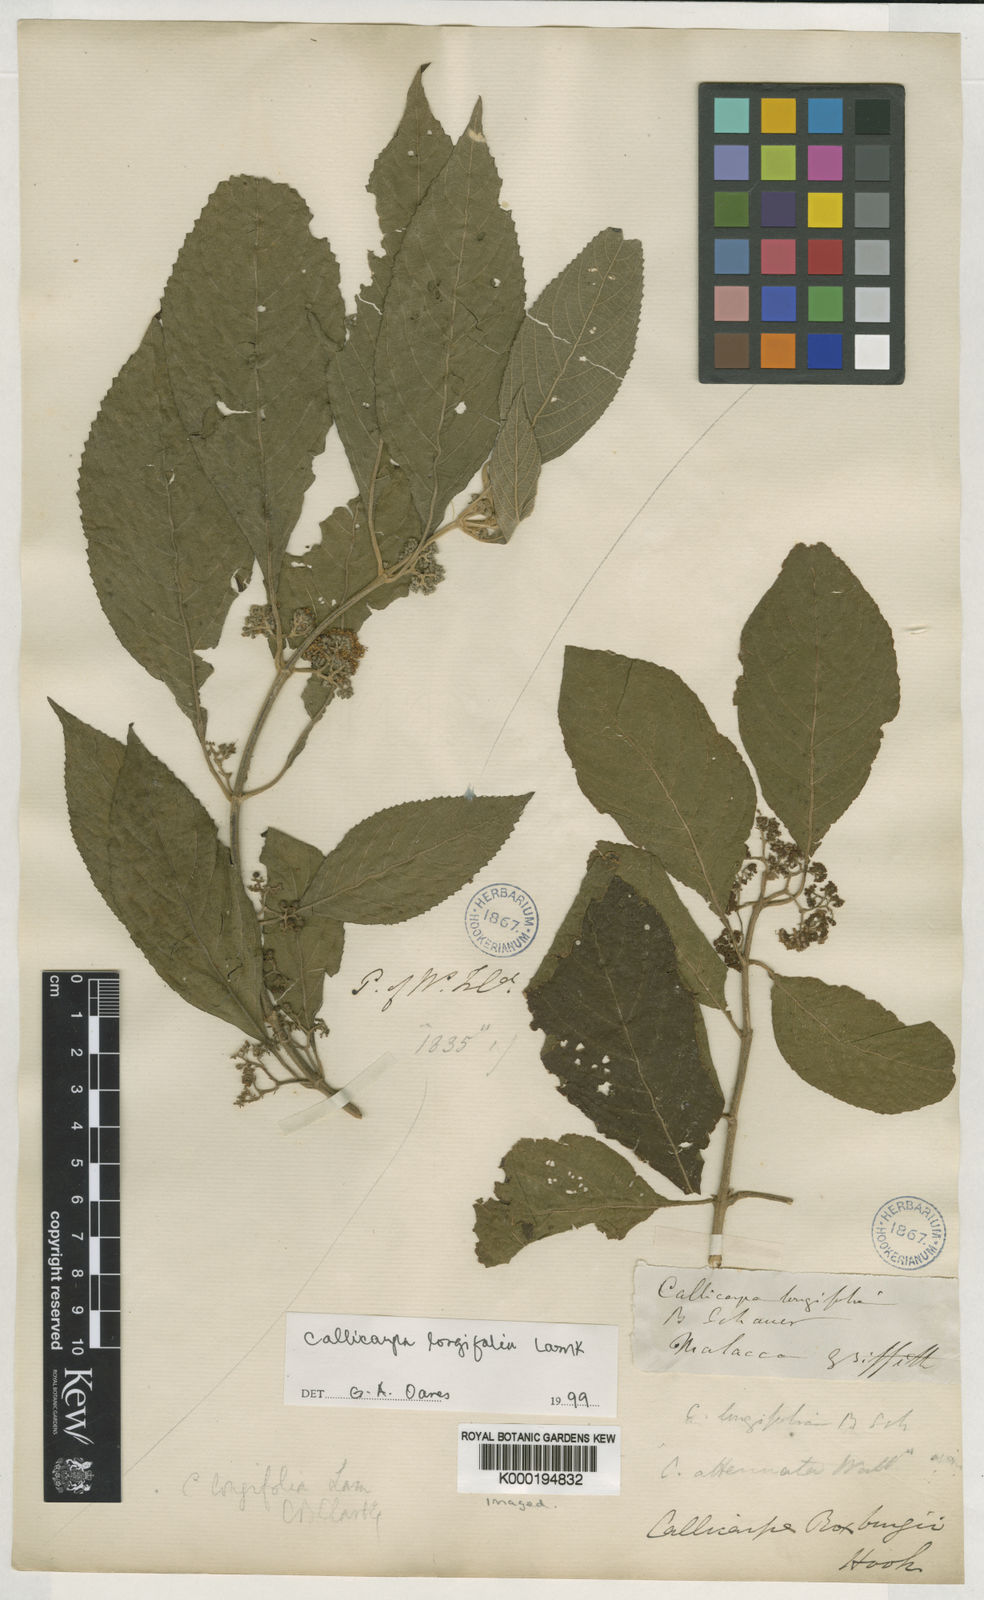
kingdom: Plantae
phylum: Tracheophyta
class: Magnoliopsida
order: Lamiales
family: Lamiaceae
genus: Callicarpa
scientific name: Callicarpa longifolia
